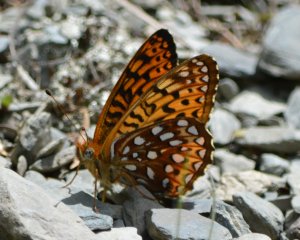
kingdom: Animalia
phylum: Arthropoda
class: Insecta
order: Lepidoptera
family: Nymphalidae
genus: Speyeria
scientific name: Speyeria atlantis
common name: Atlantis Fritillary
